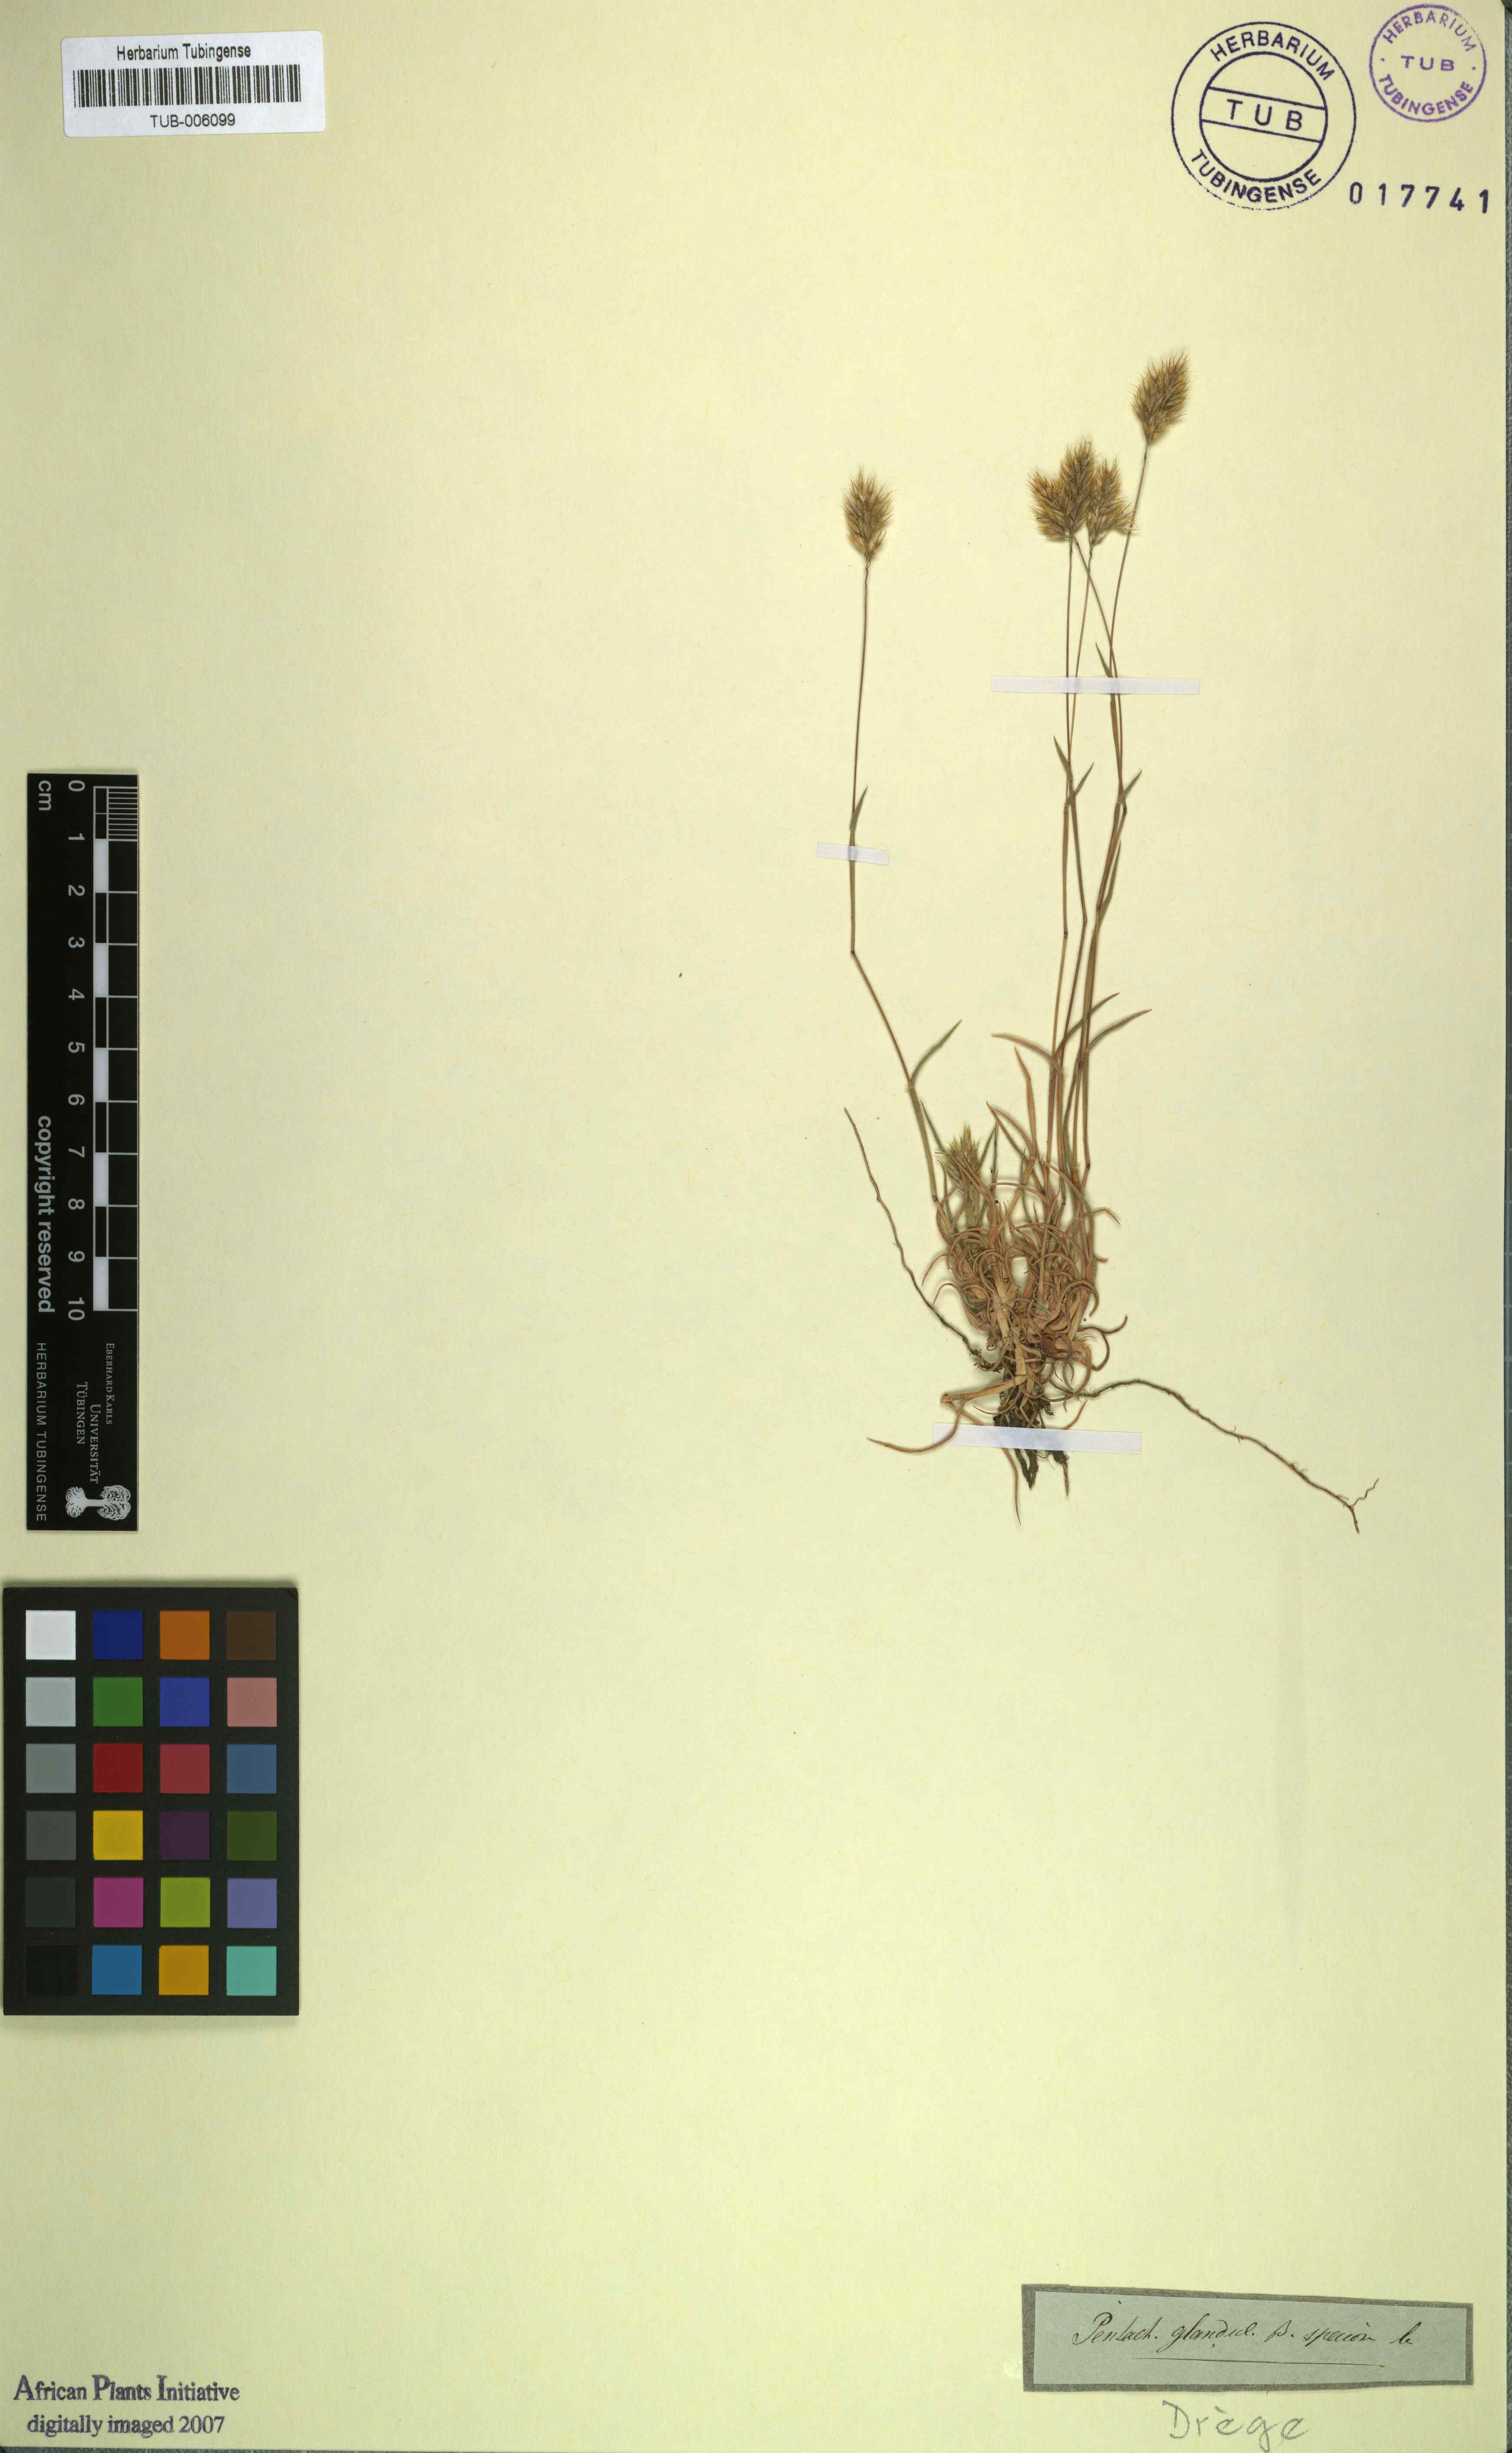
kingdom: Plantae
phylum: Tracheophyta
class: Liliopsida
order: Poales
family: Poaceae
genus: Pentameris
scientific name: Pentameris glandulosa
